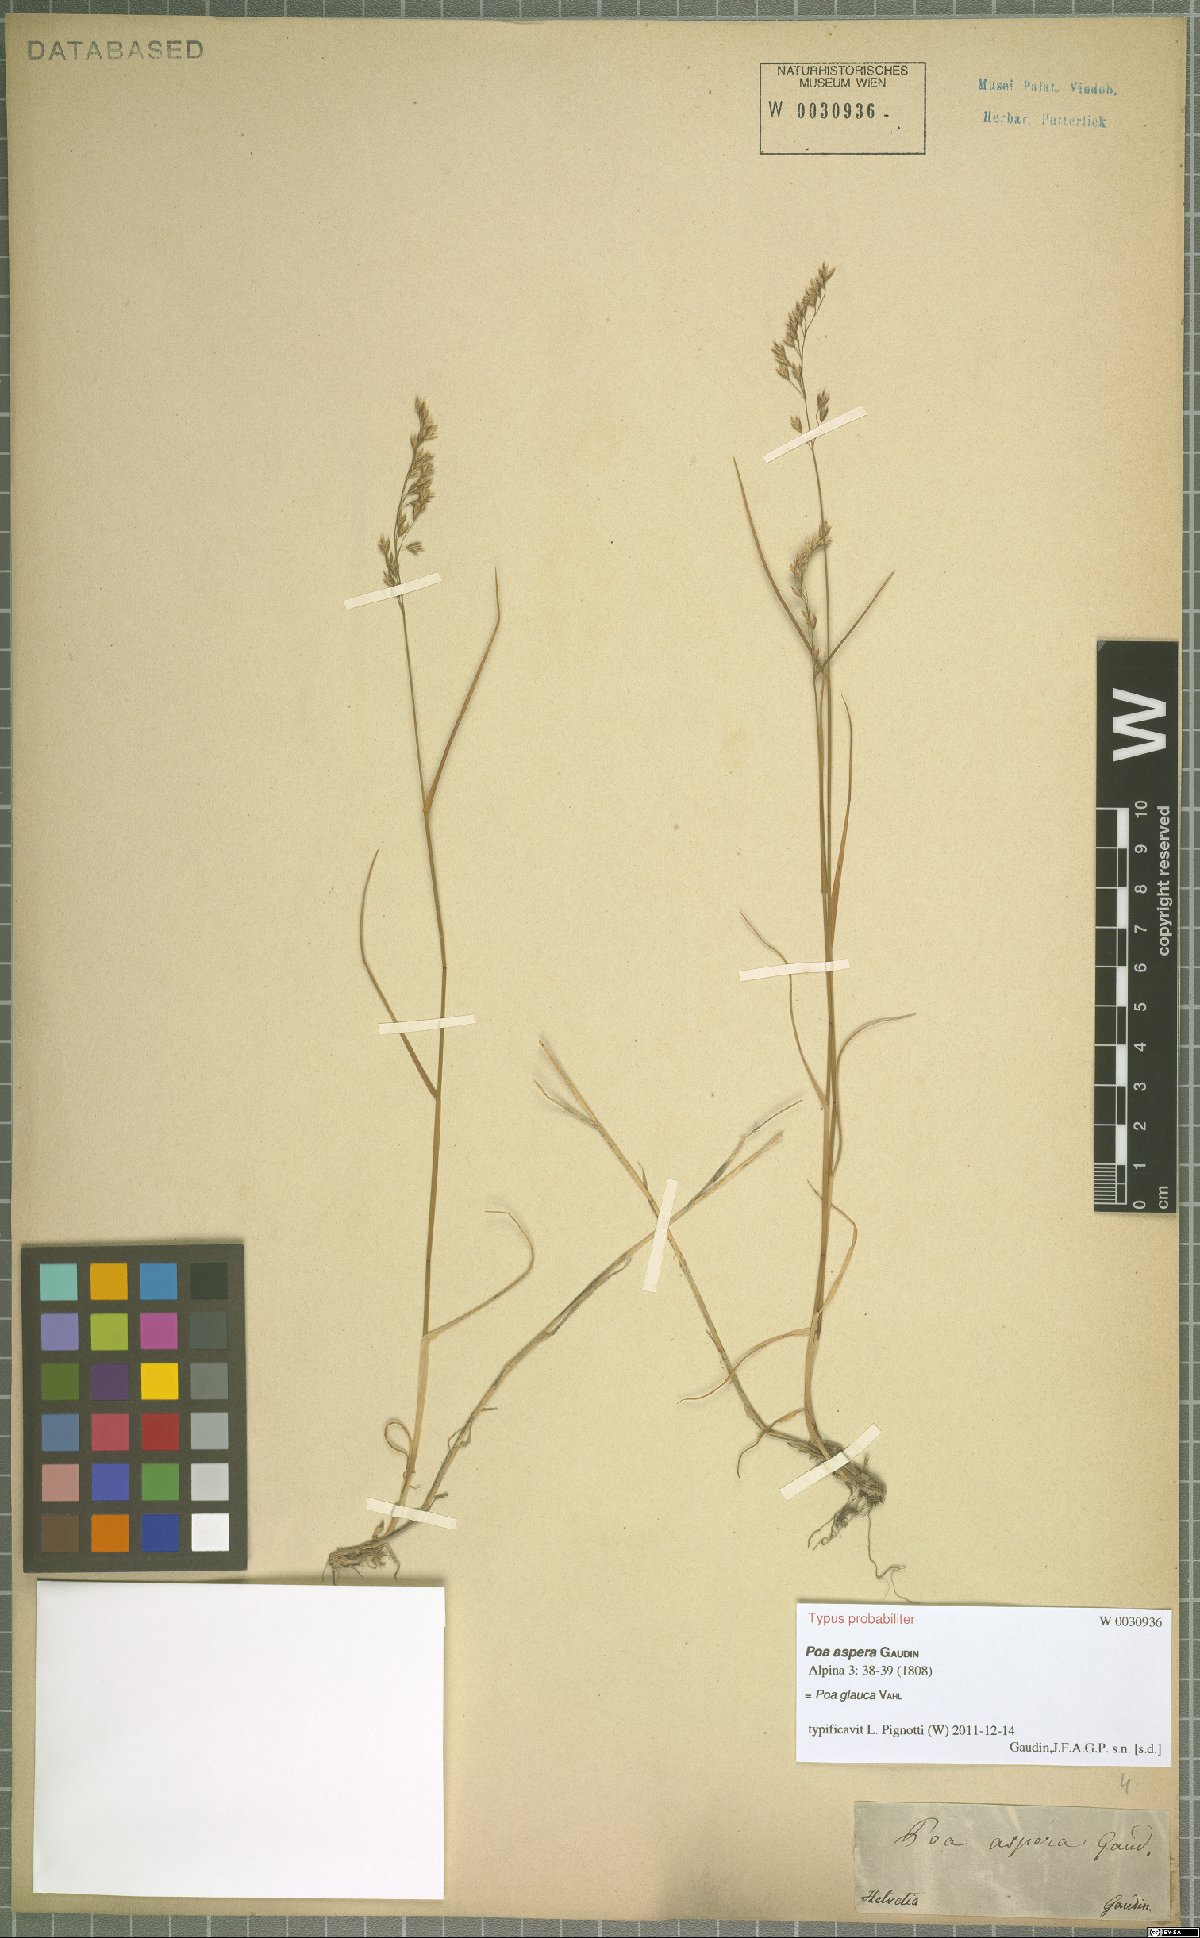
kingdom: Plantae
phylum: Tracheophyta
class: Liliopsida
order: Poales
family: Poaceae
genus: Poa
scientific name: Poa glauca
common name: Glaucous bluegrass
